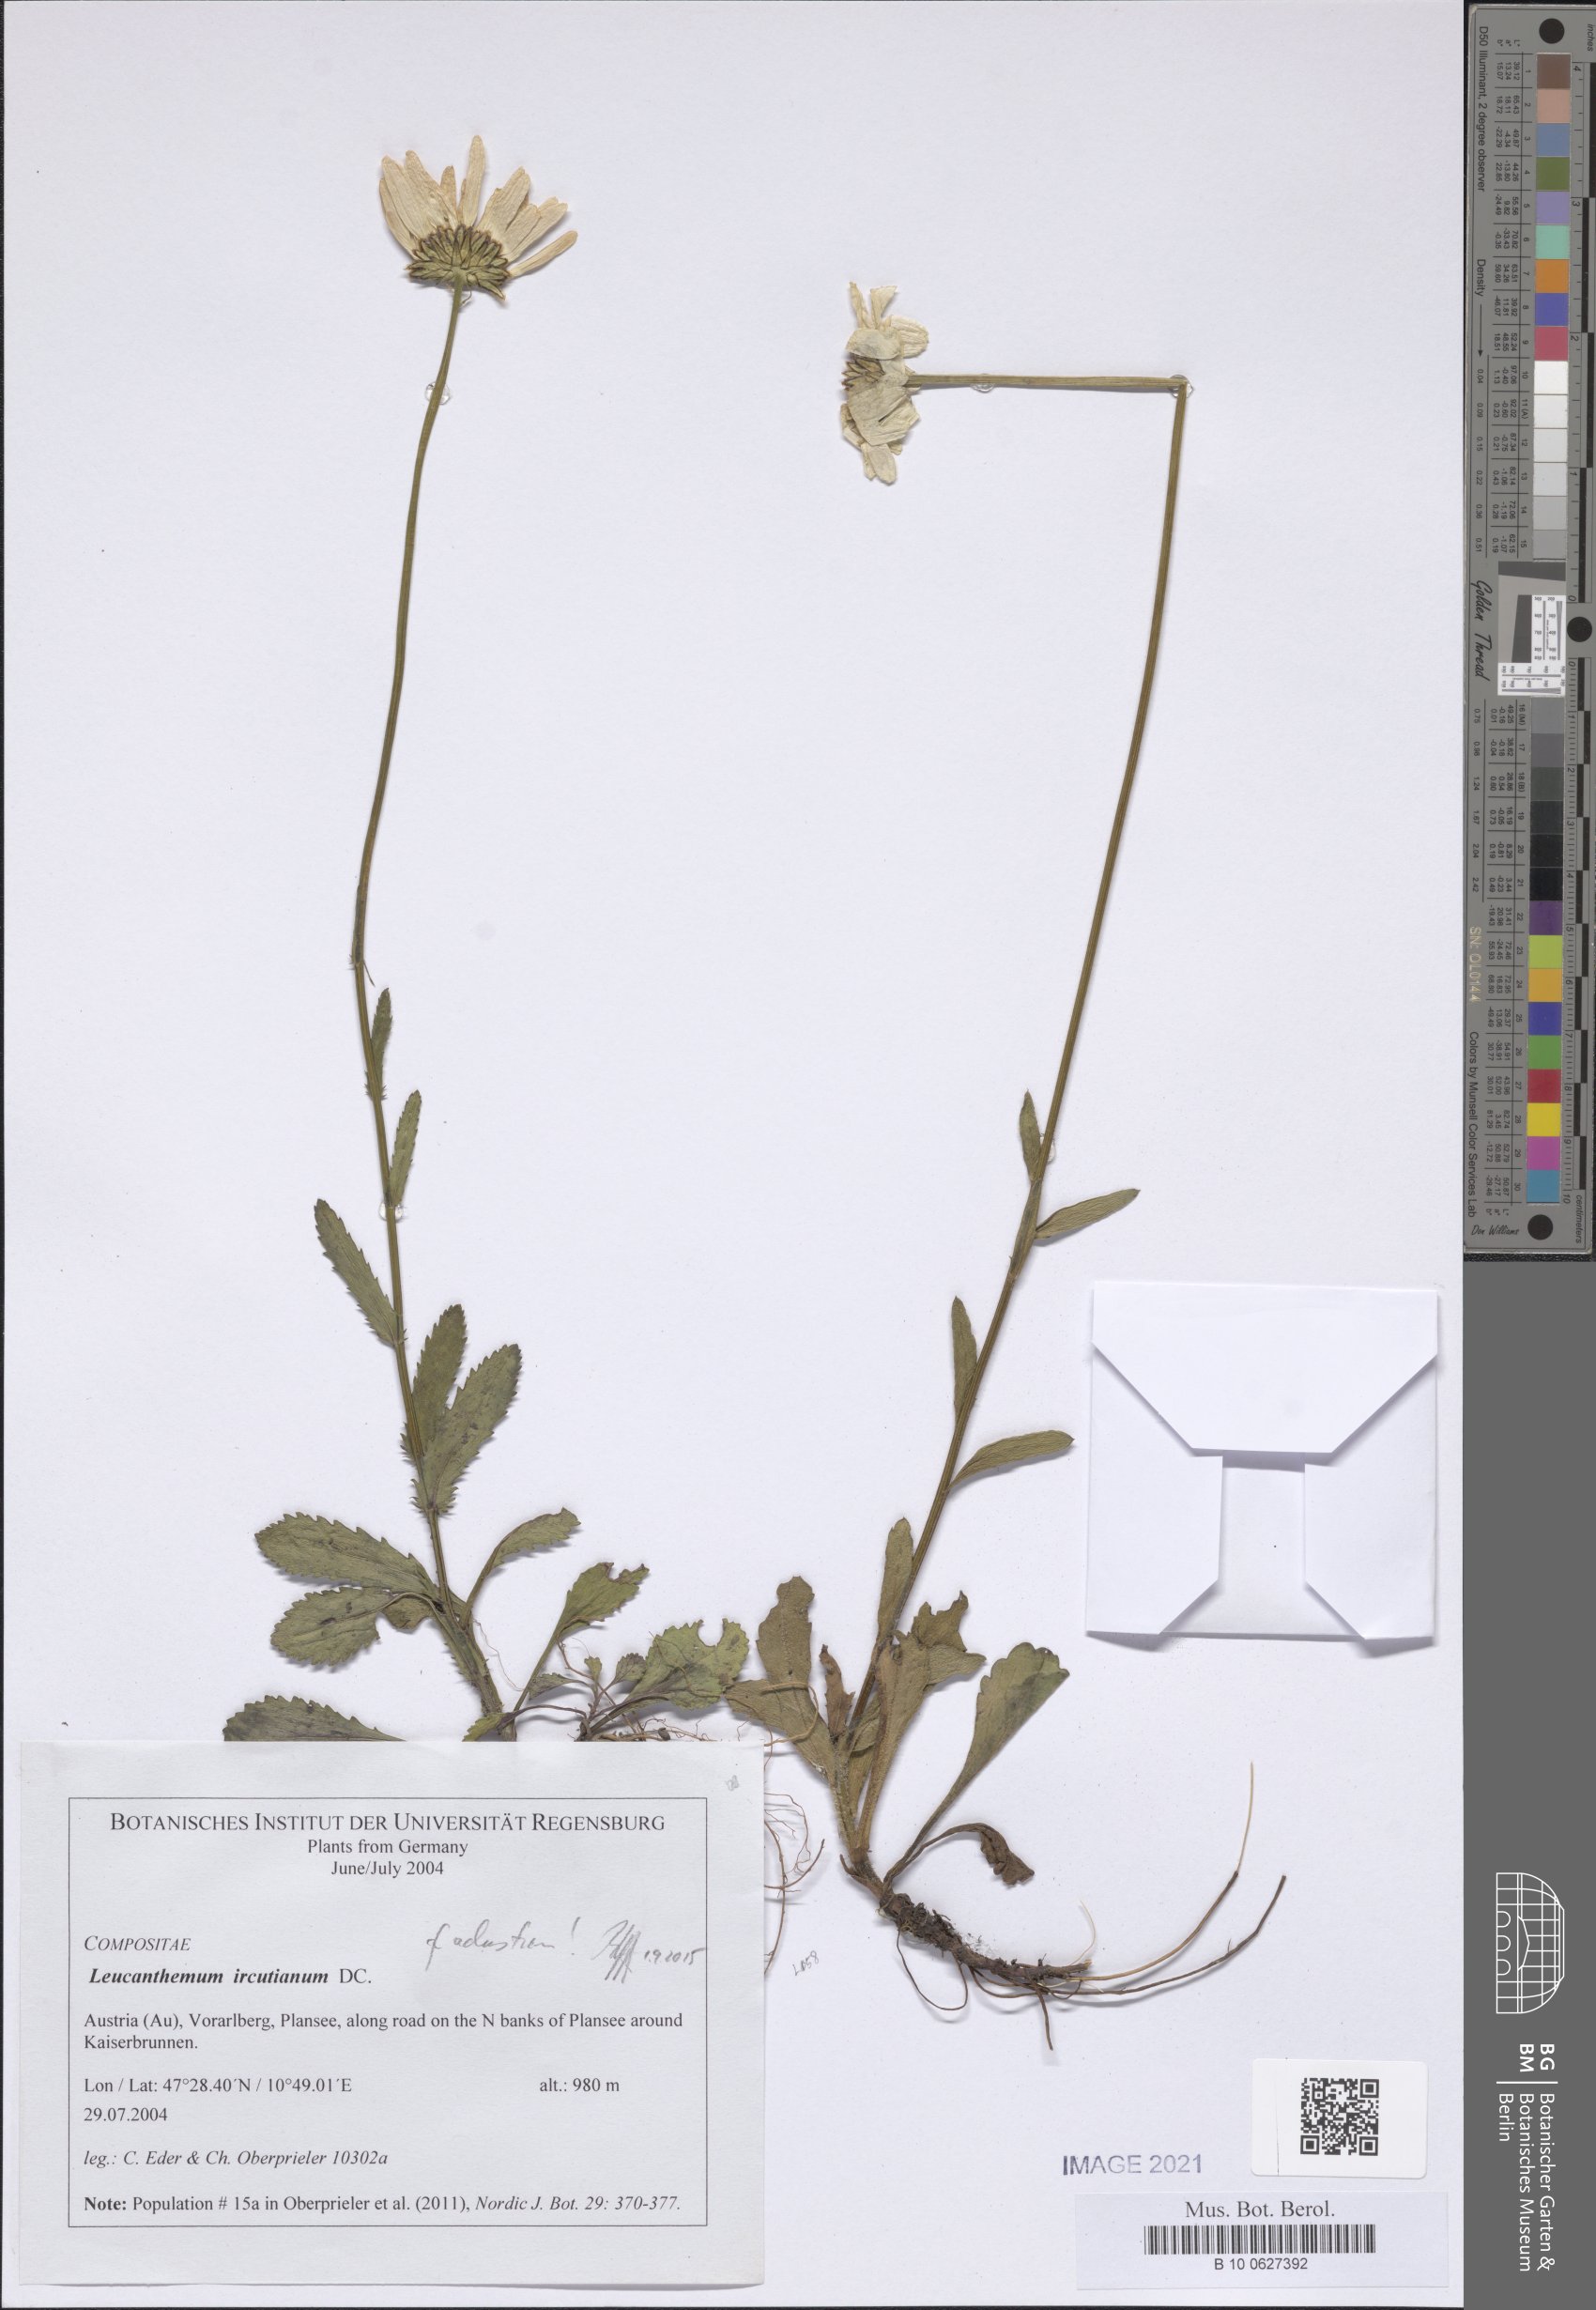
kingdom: Plantae
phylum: Tracheophyta
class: Magnoliopsida
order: Asterales
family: Asteraceae
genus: Leucanthemum
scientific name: Leucanthemum adustum
